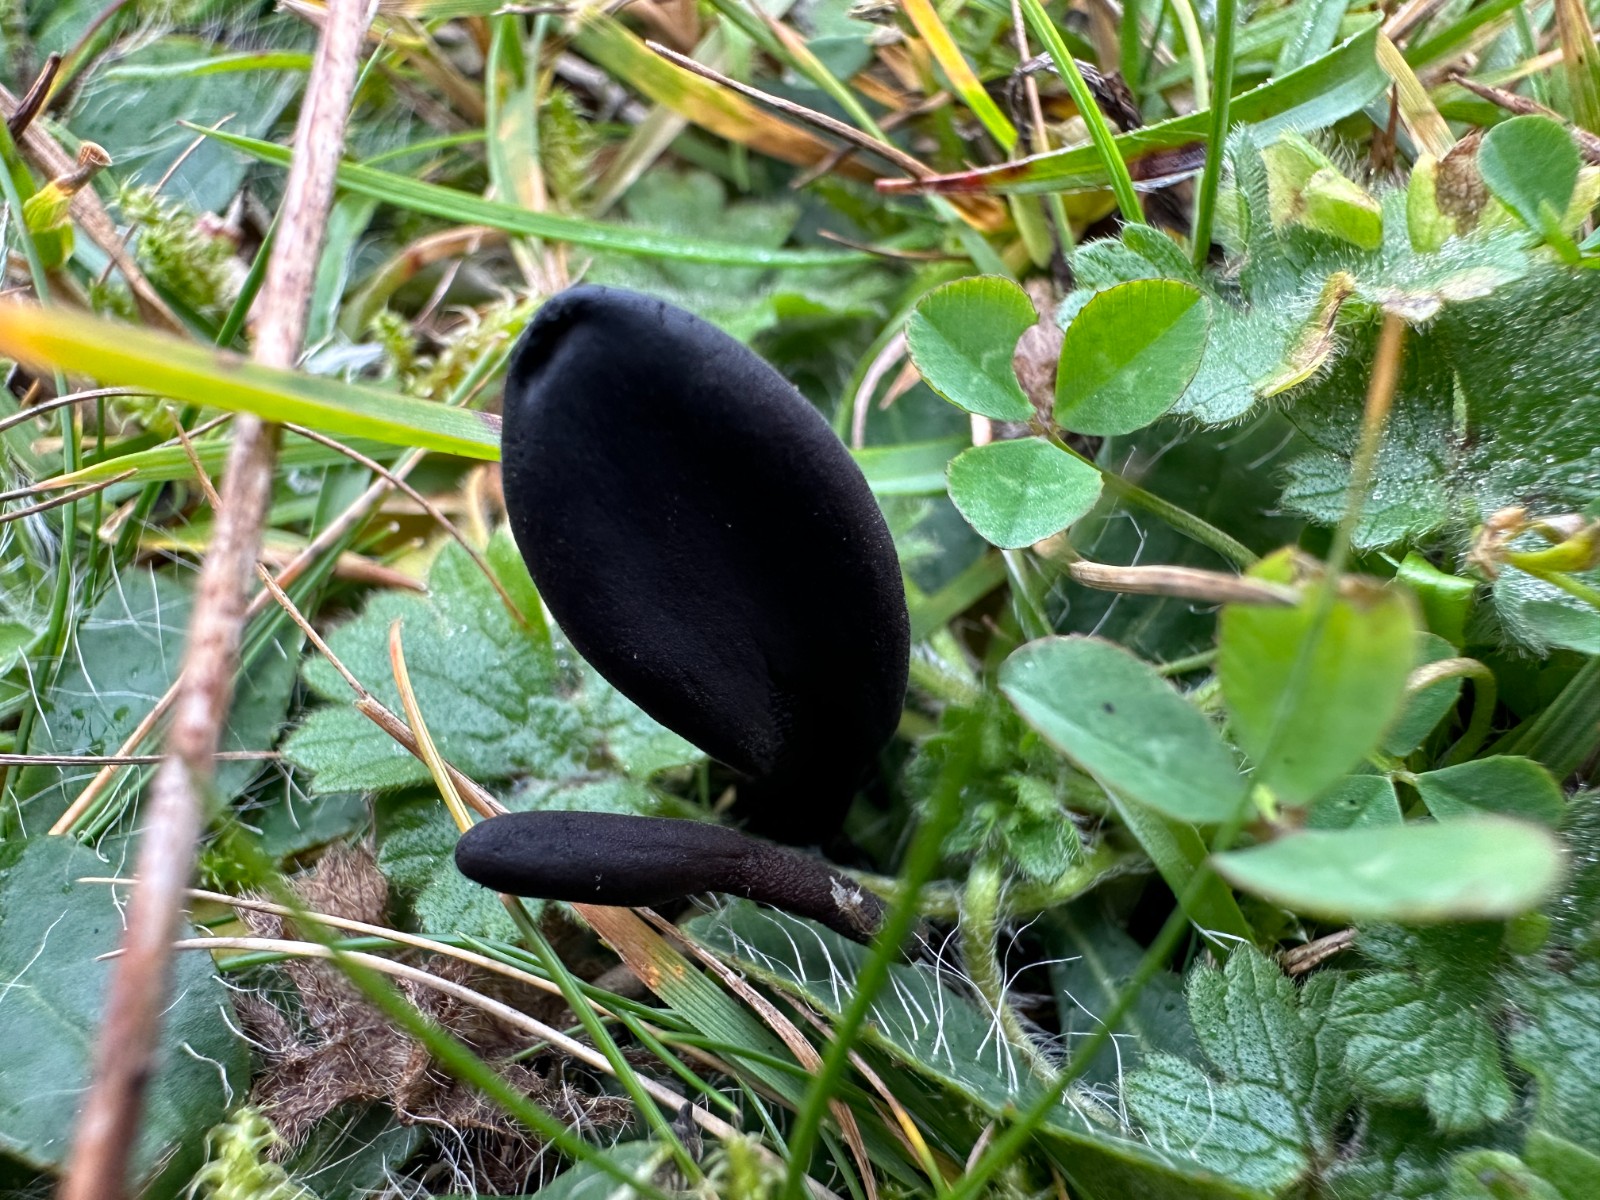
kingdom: Fungi
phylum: Ascomycota
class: Geoglossomycetes
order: Geoglossales
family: Geoglossaceae
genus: Geoglossum
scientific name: Geoglossum
